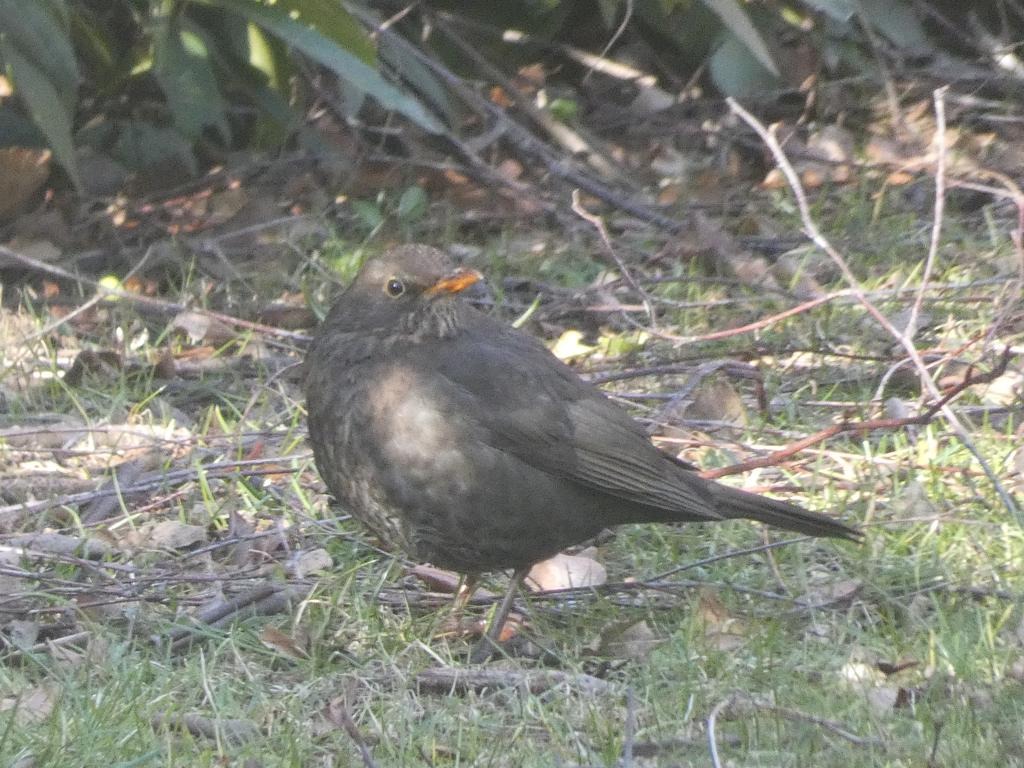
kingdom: Animalia
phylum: Chordata
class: Aves
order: Passeriformes
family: Turdidae
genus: Turdus
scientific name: Turdus merula
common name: Solsort
